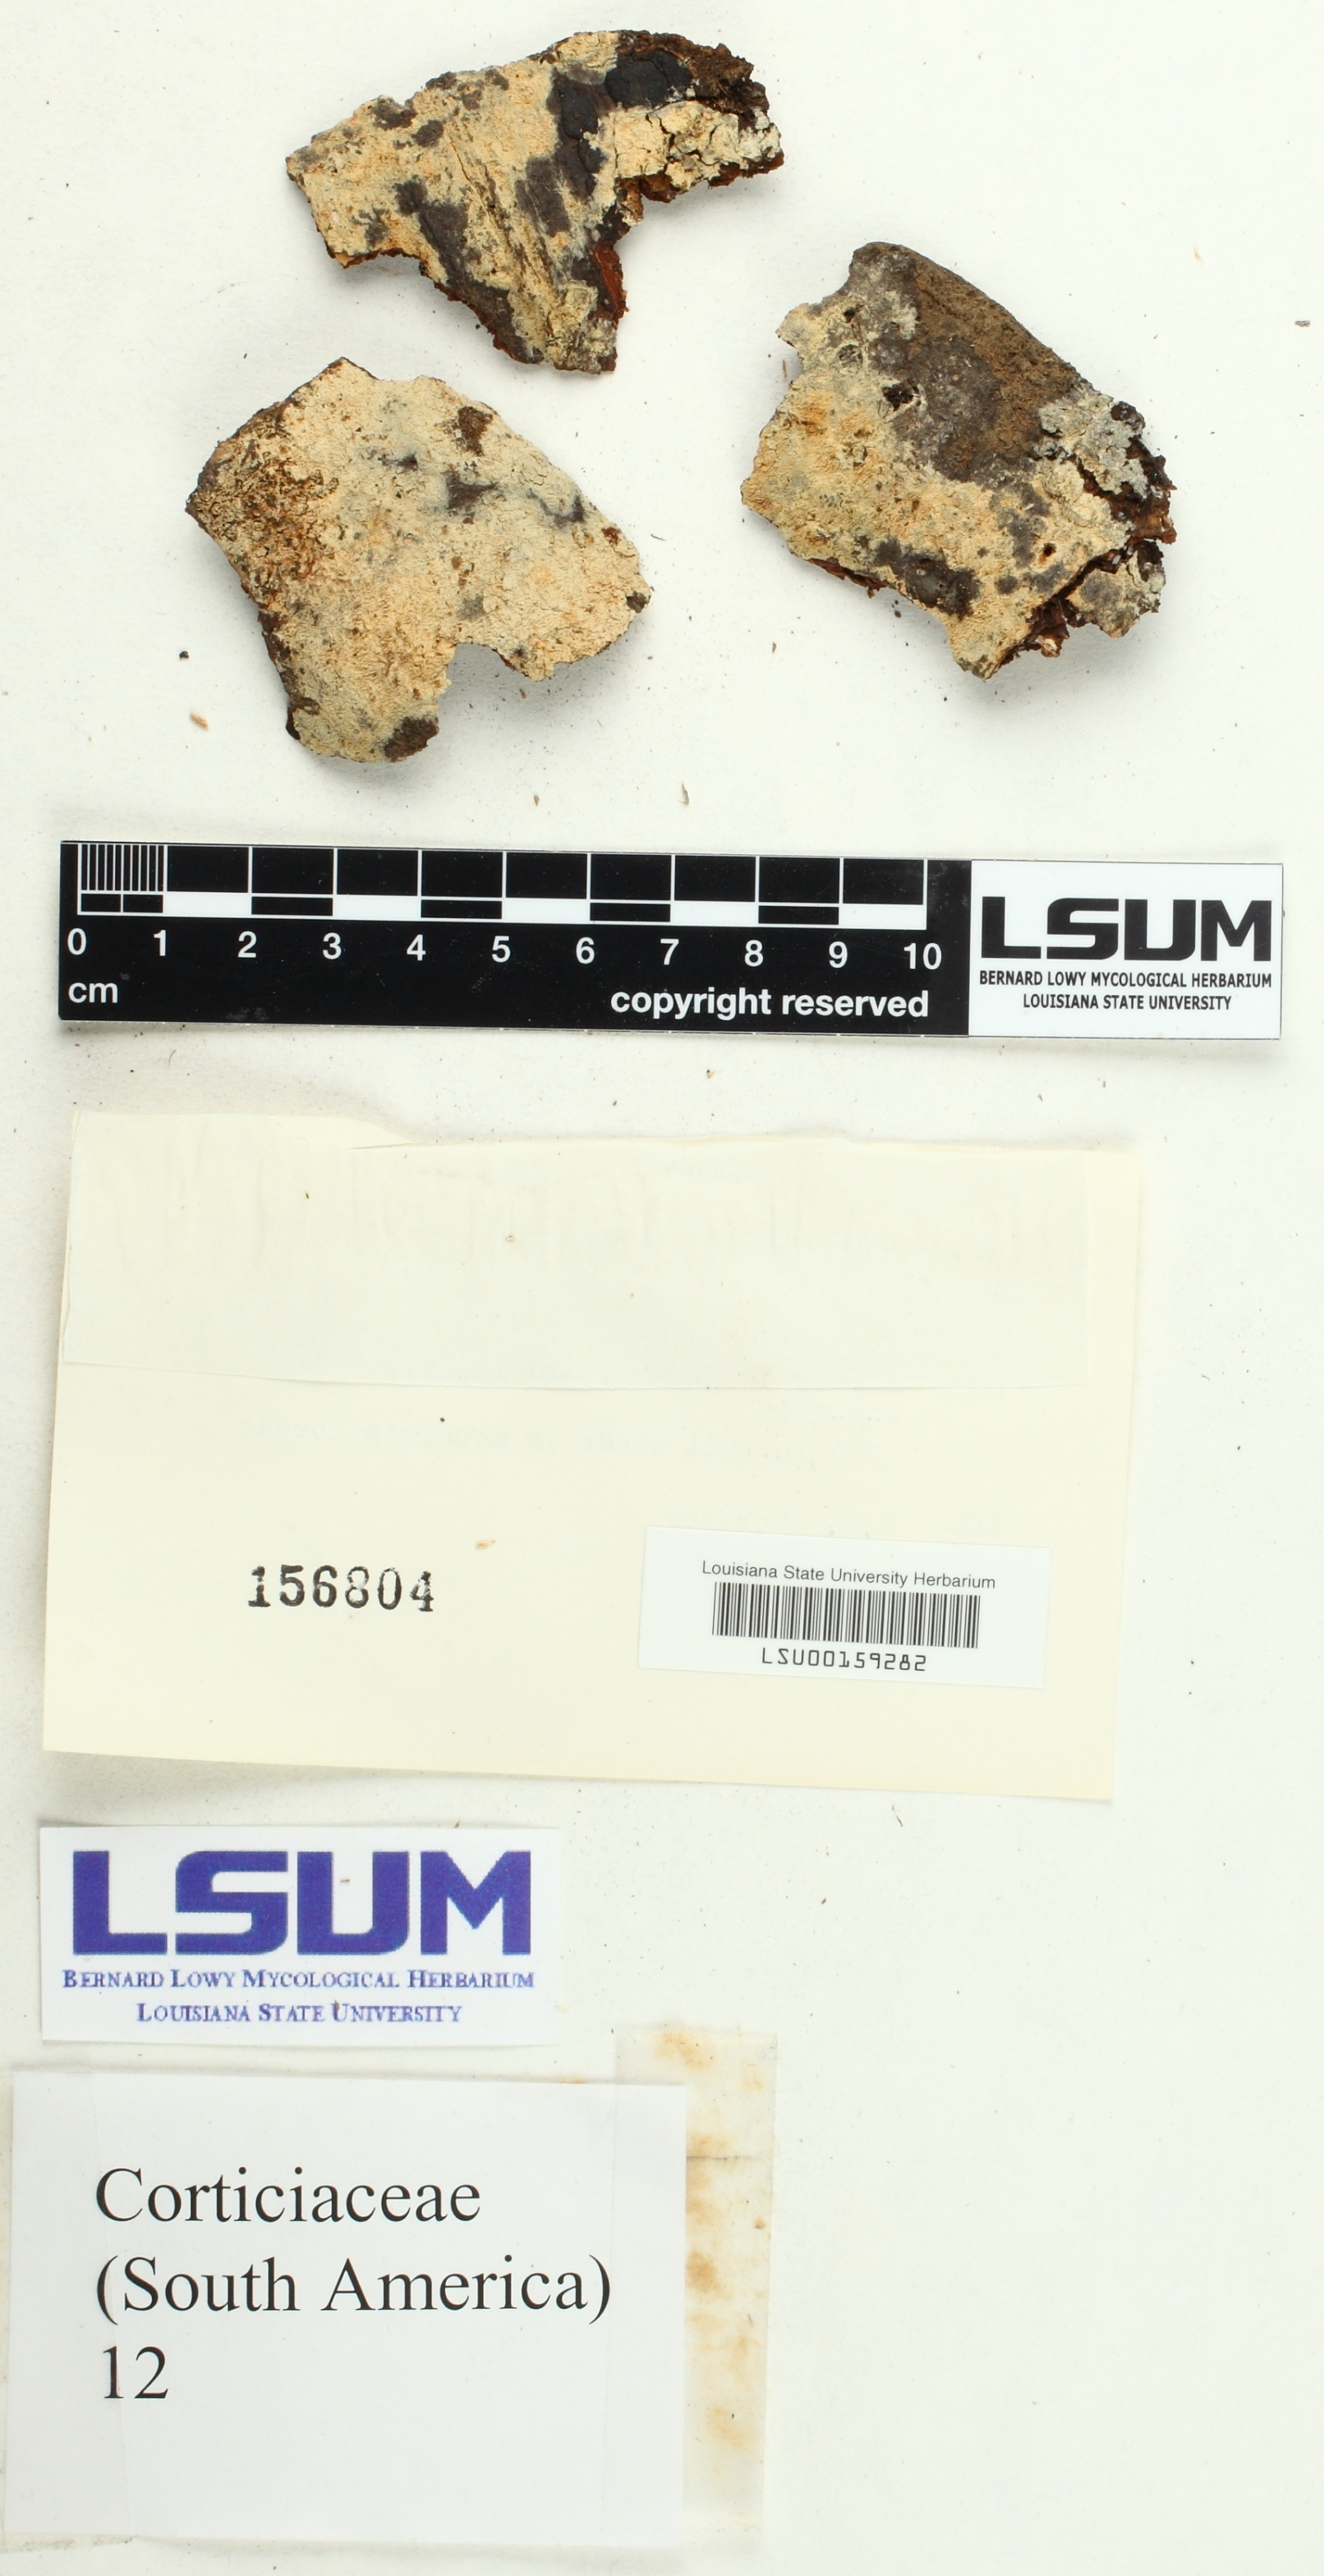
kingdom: Fungi
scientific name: Fungi
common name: Fungi
